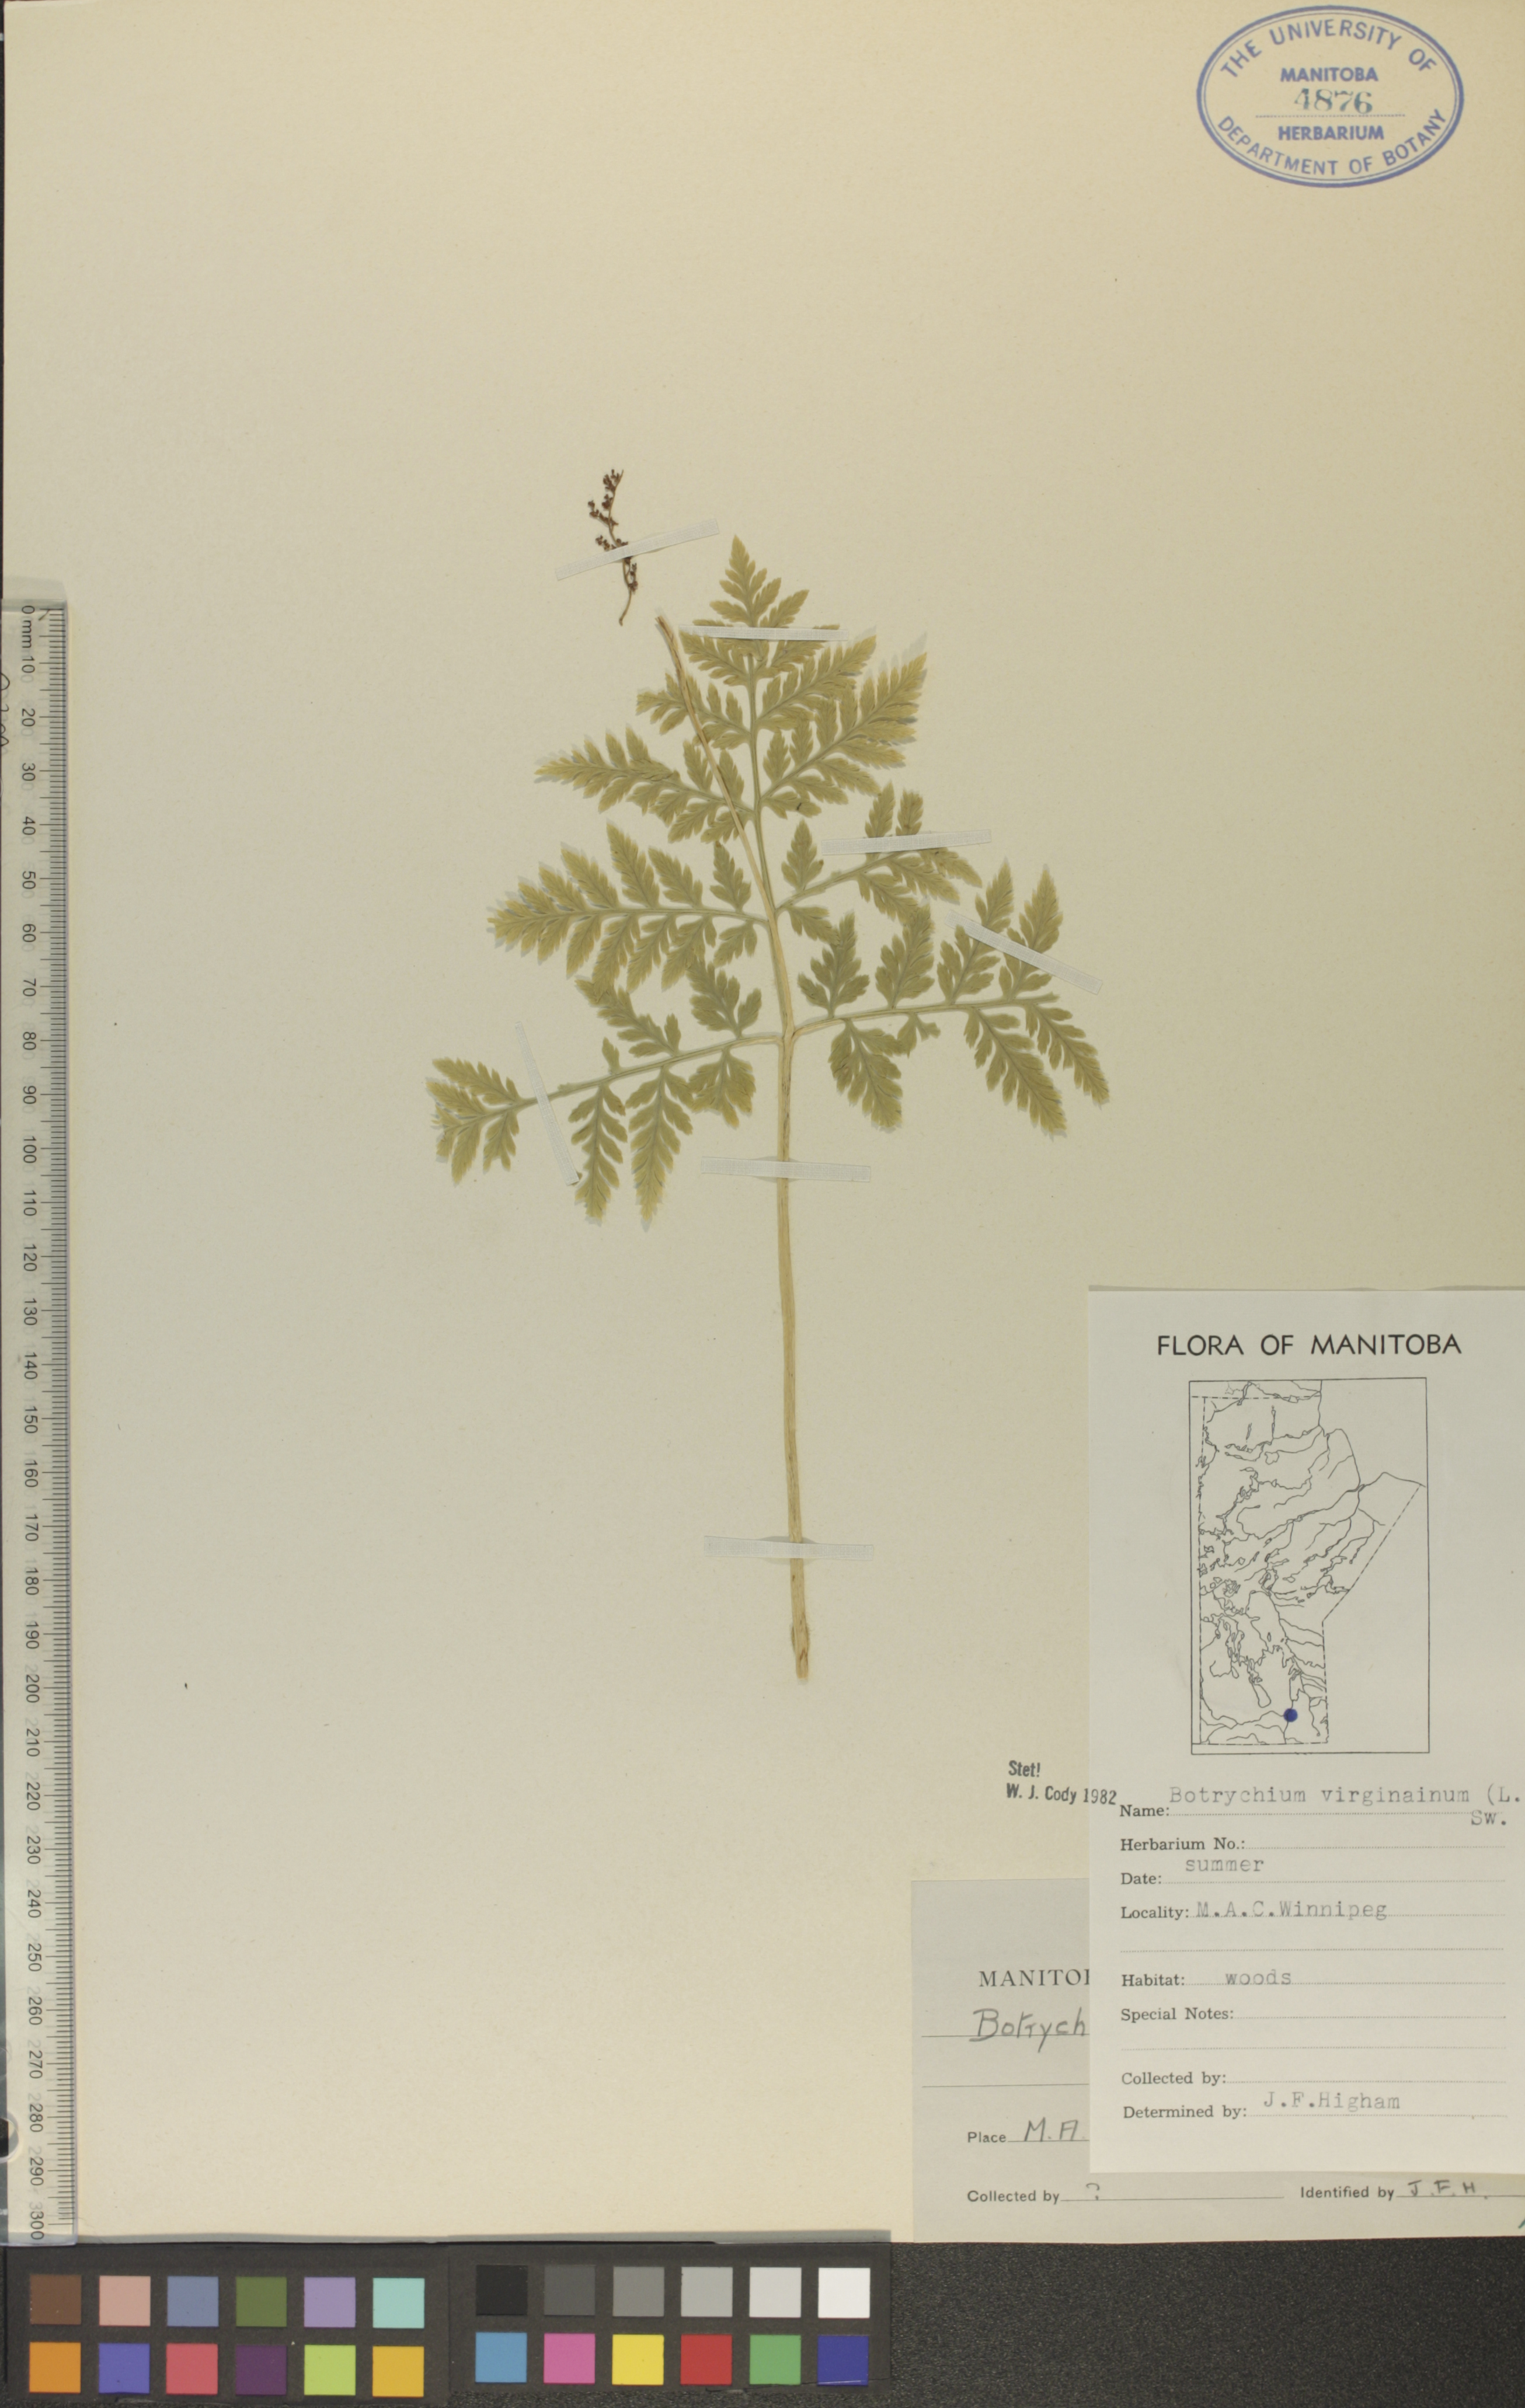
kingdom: Plantae
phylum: Tracheophyta
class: Polypodiopsida
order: Ophioglossales
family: Ophioglossaceae
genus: Botrypus
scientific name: Botrypus virginianus
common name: Common grapefern
